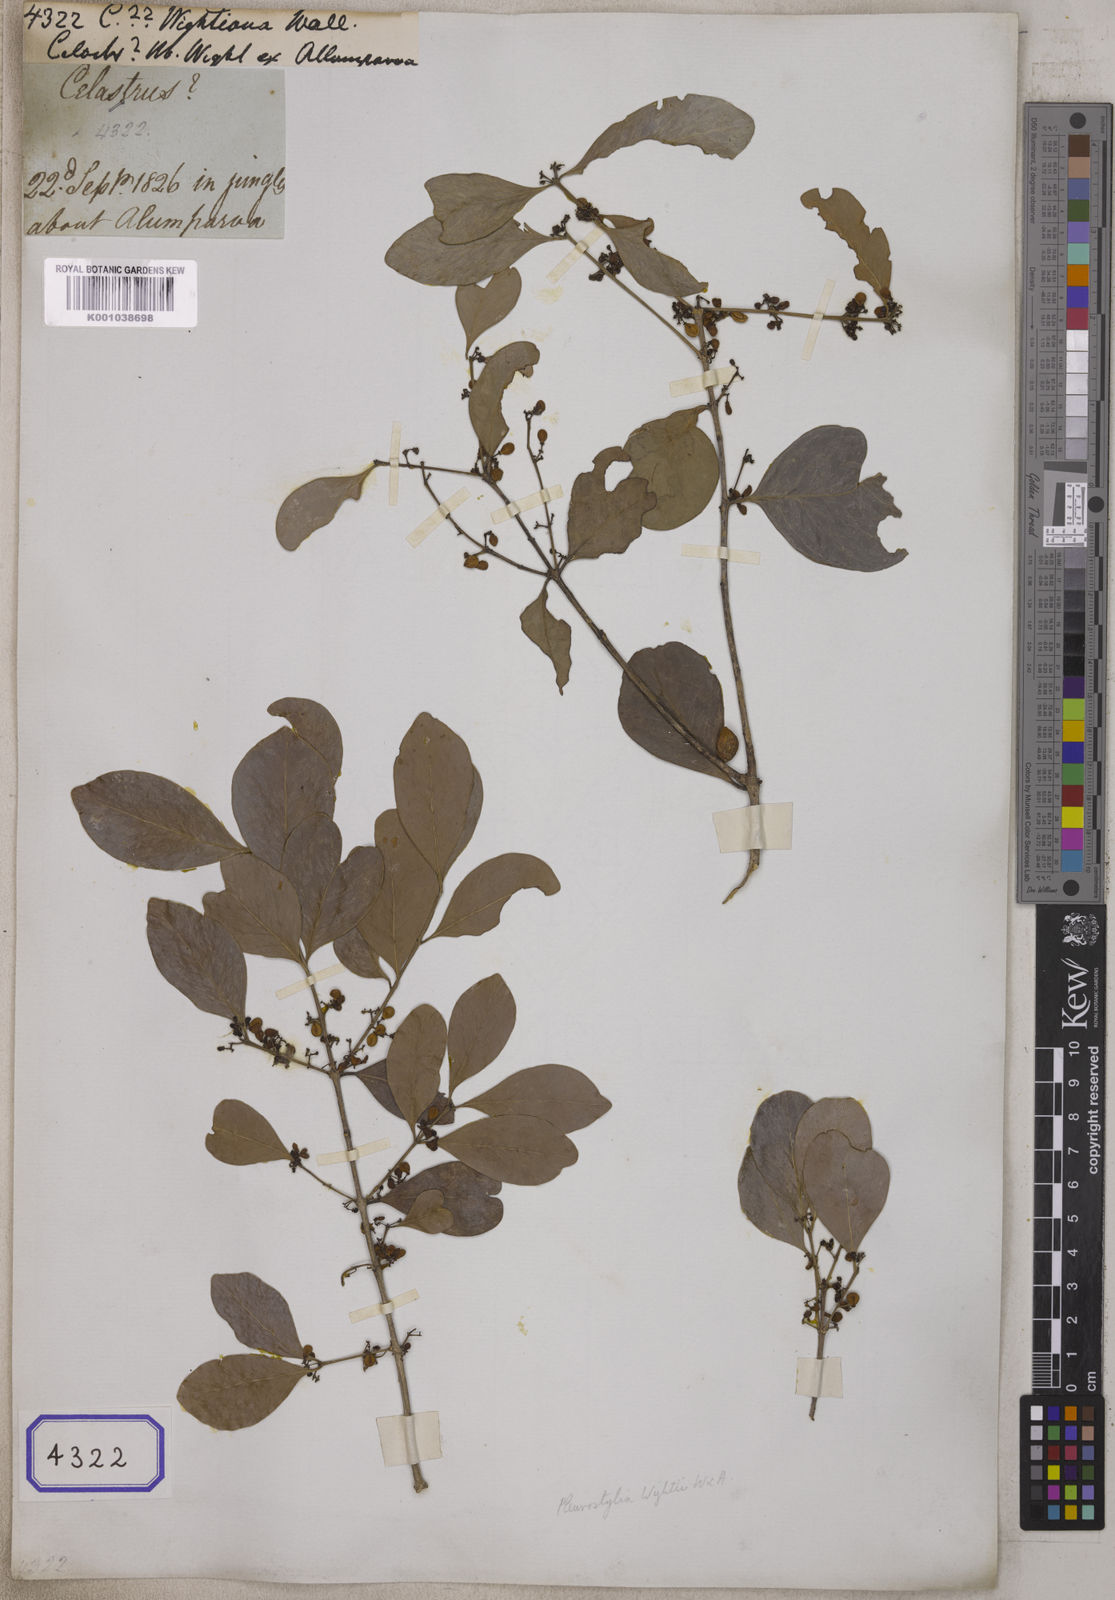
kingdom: Plantae
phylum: Tracheophyta
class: Magnoliopsida
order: Celastrales
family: Celastraceae
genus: Pleurostylia
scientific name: Pleurostylia opposita
